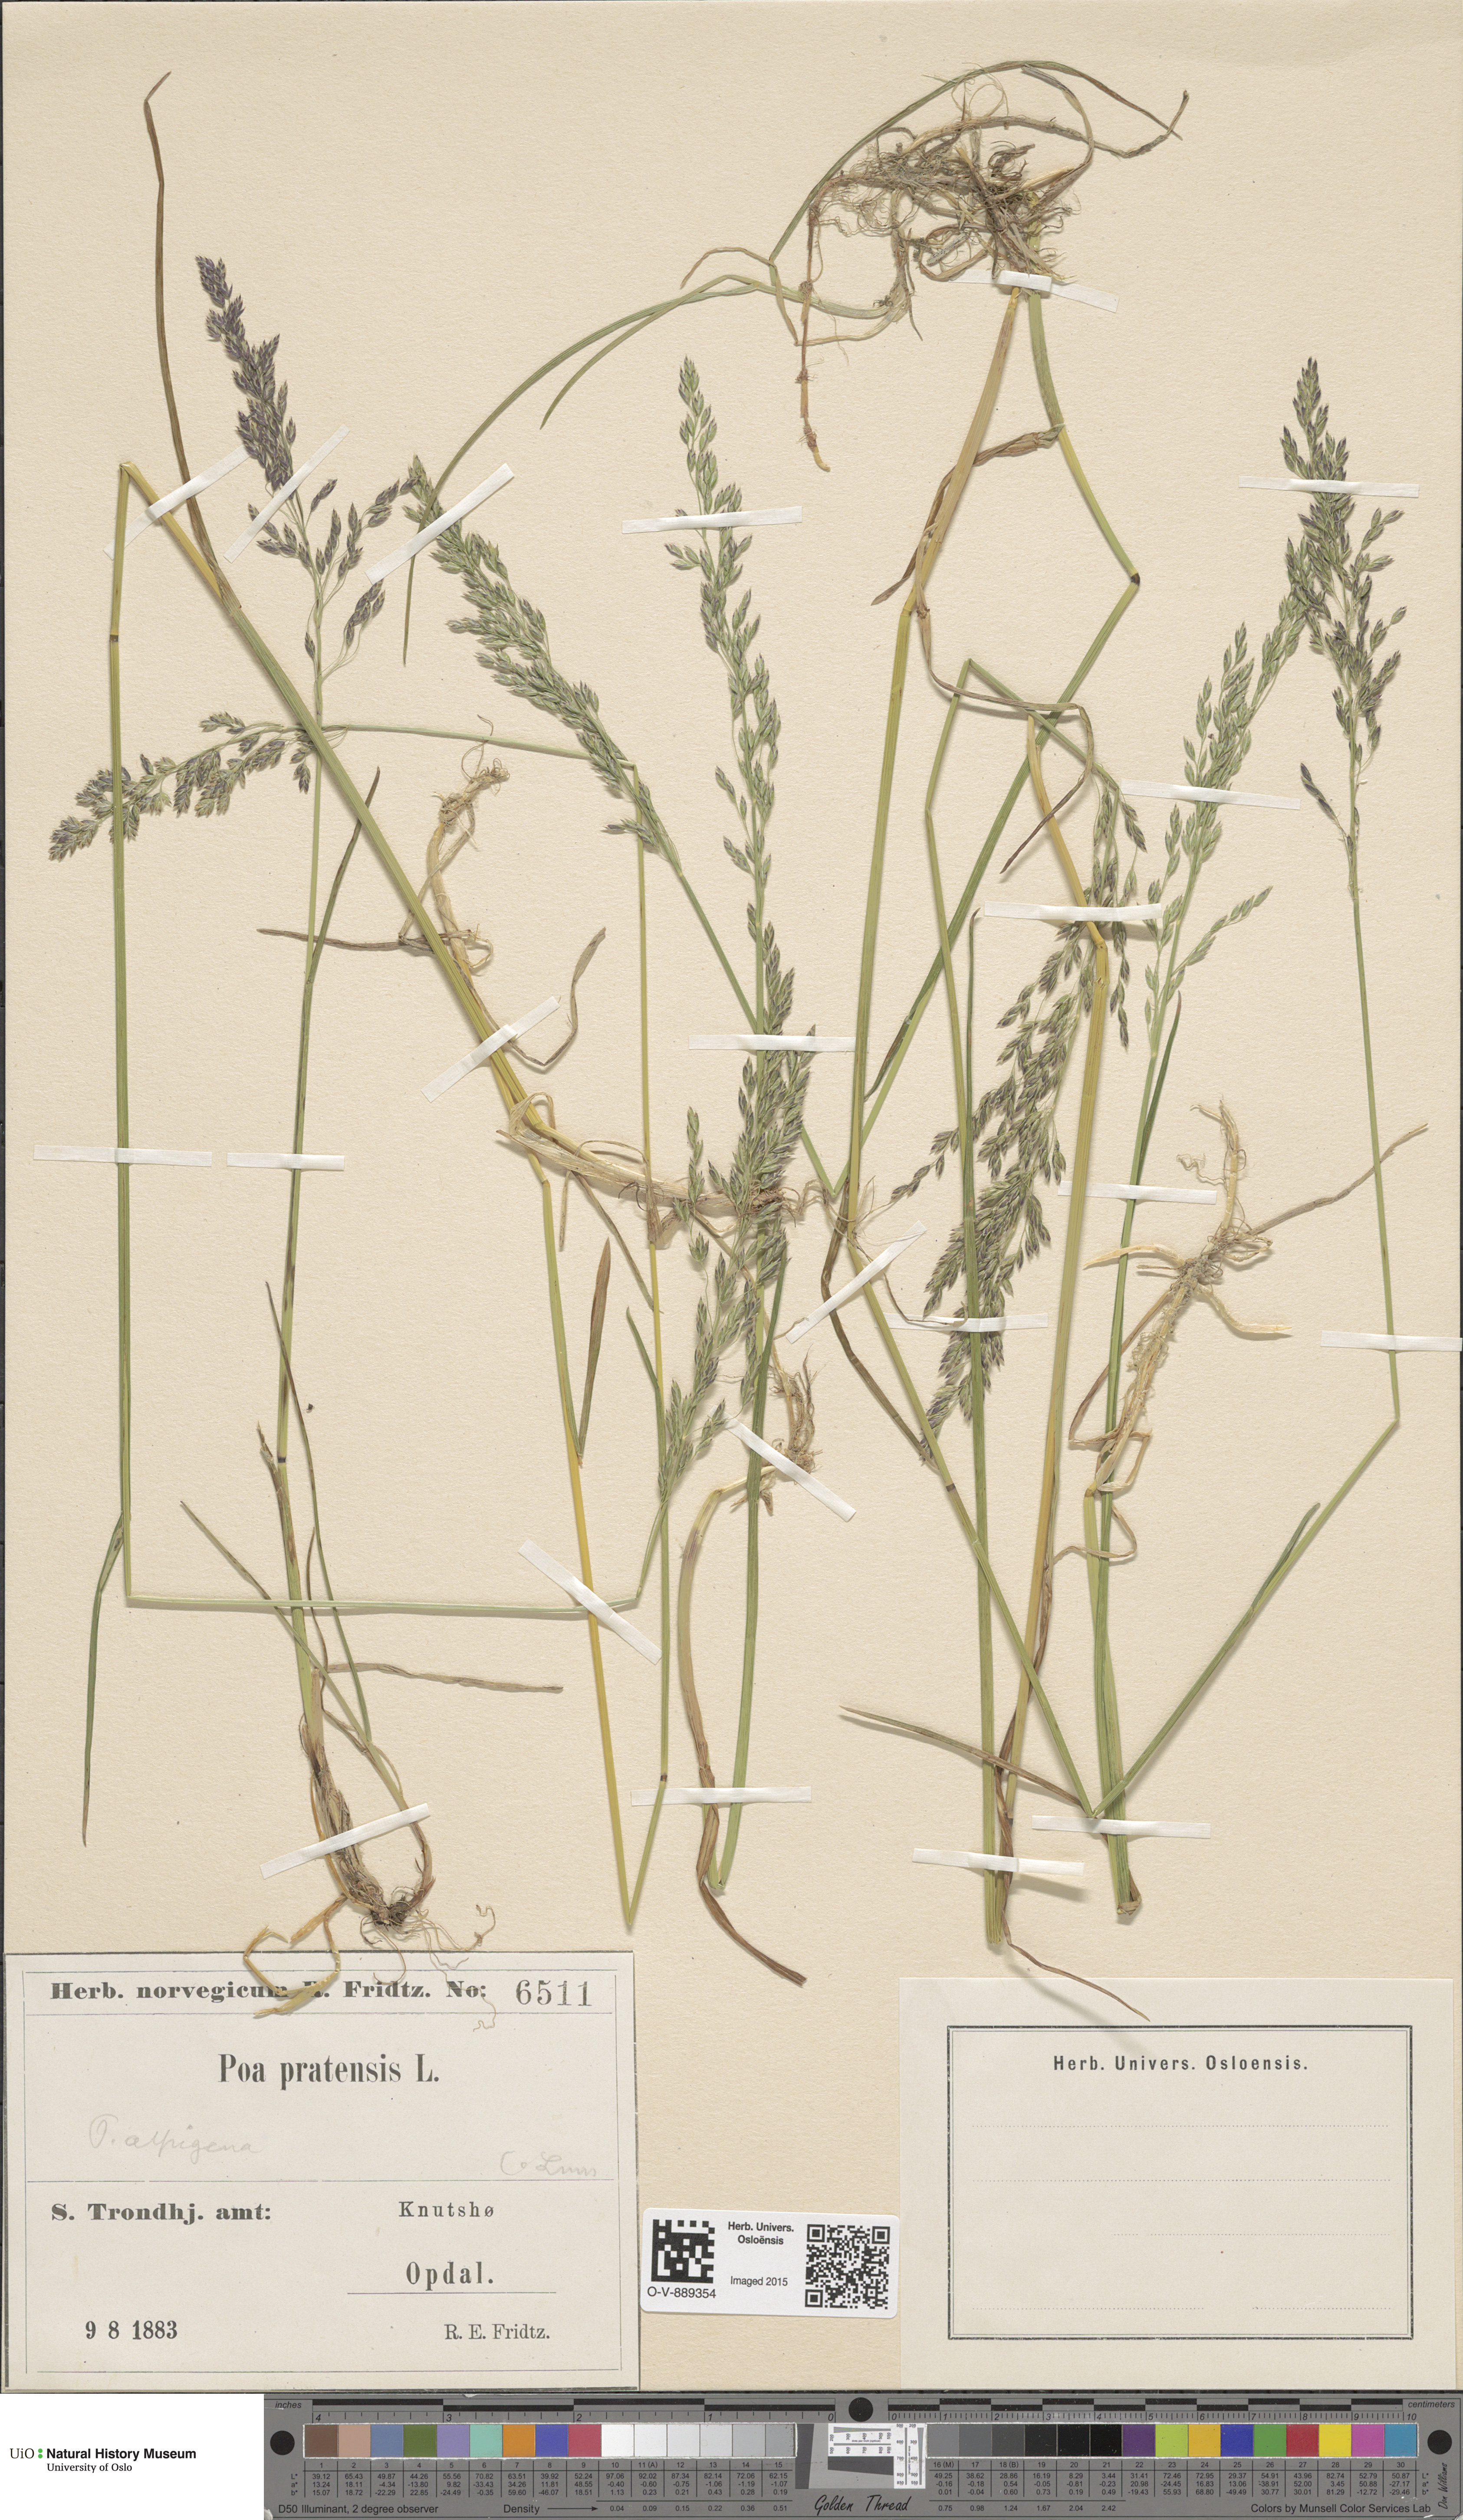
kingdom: Plantae
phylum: Tracheophyta
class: Liliopsida
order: Poales
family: Poaceae
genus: Poa
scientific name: Poa alpigena
